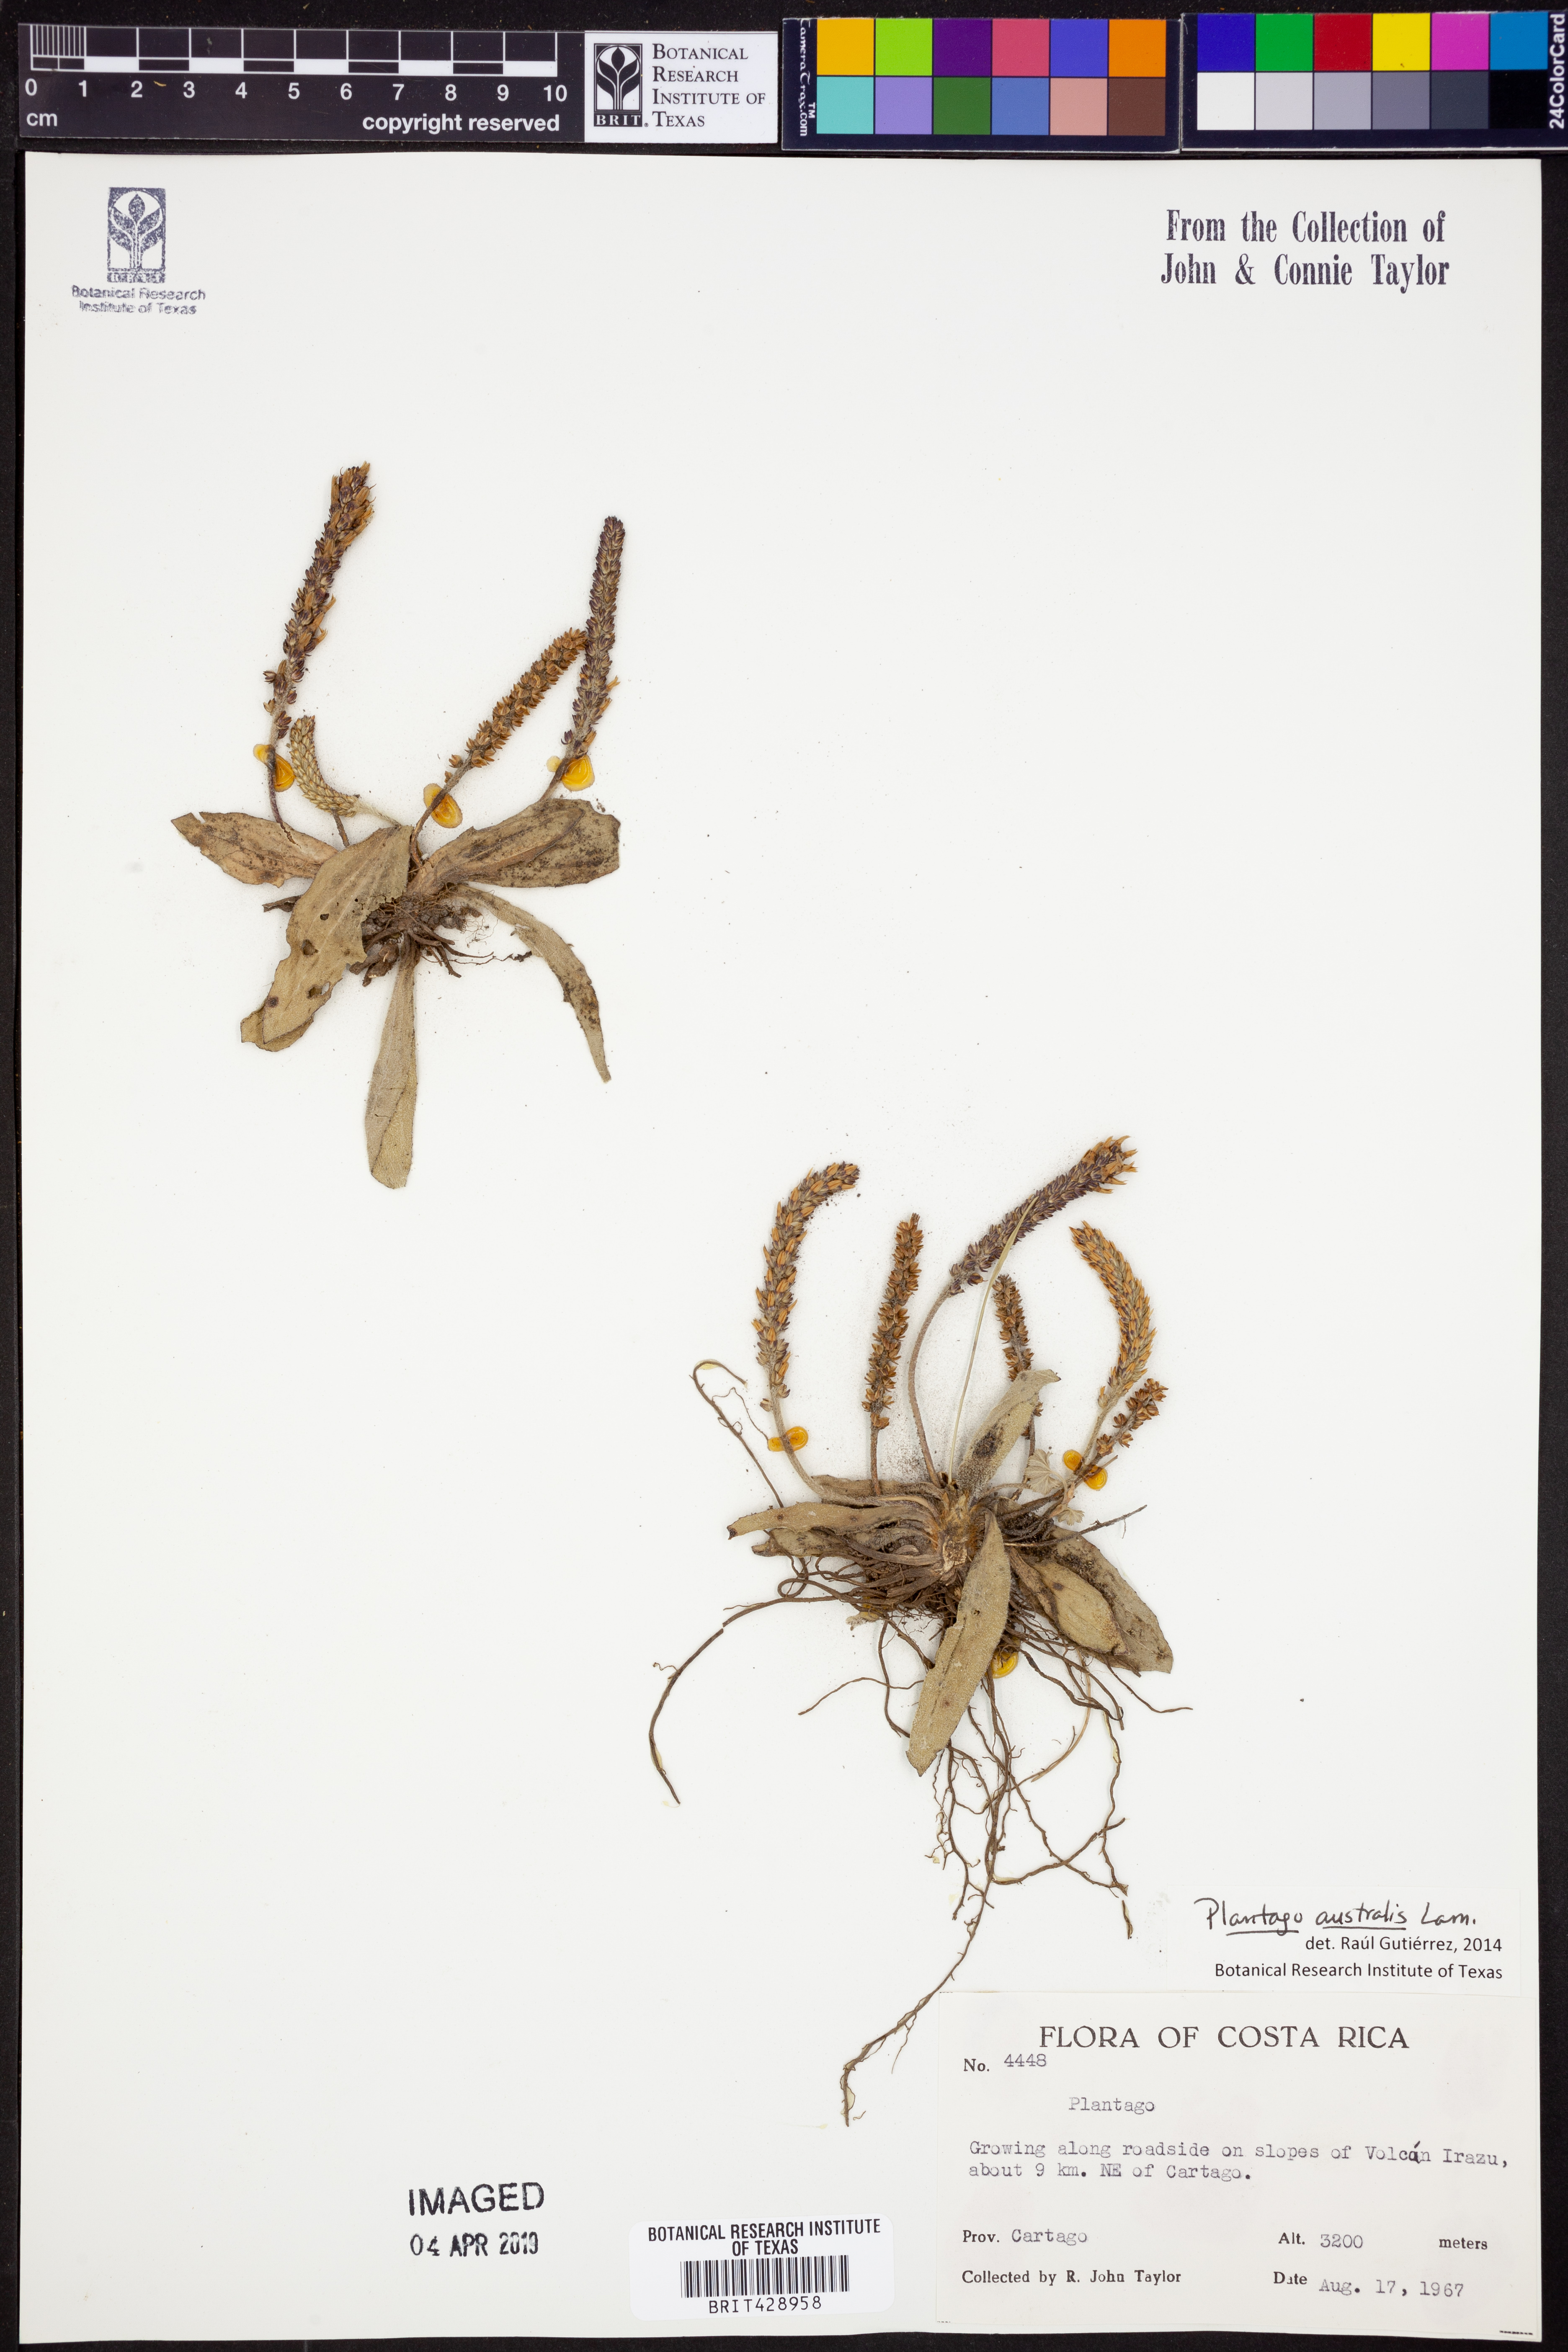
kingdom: Plantae
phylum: Tracheophyta
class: Magnoliopsida
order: Lamiales
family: Plantaginaceae
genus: Plantago
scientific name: Plantago australis
